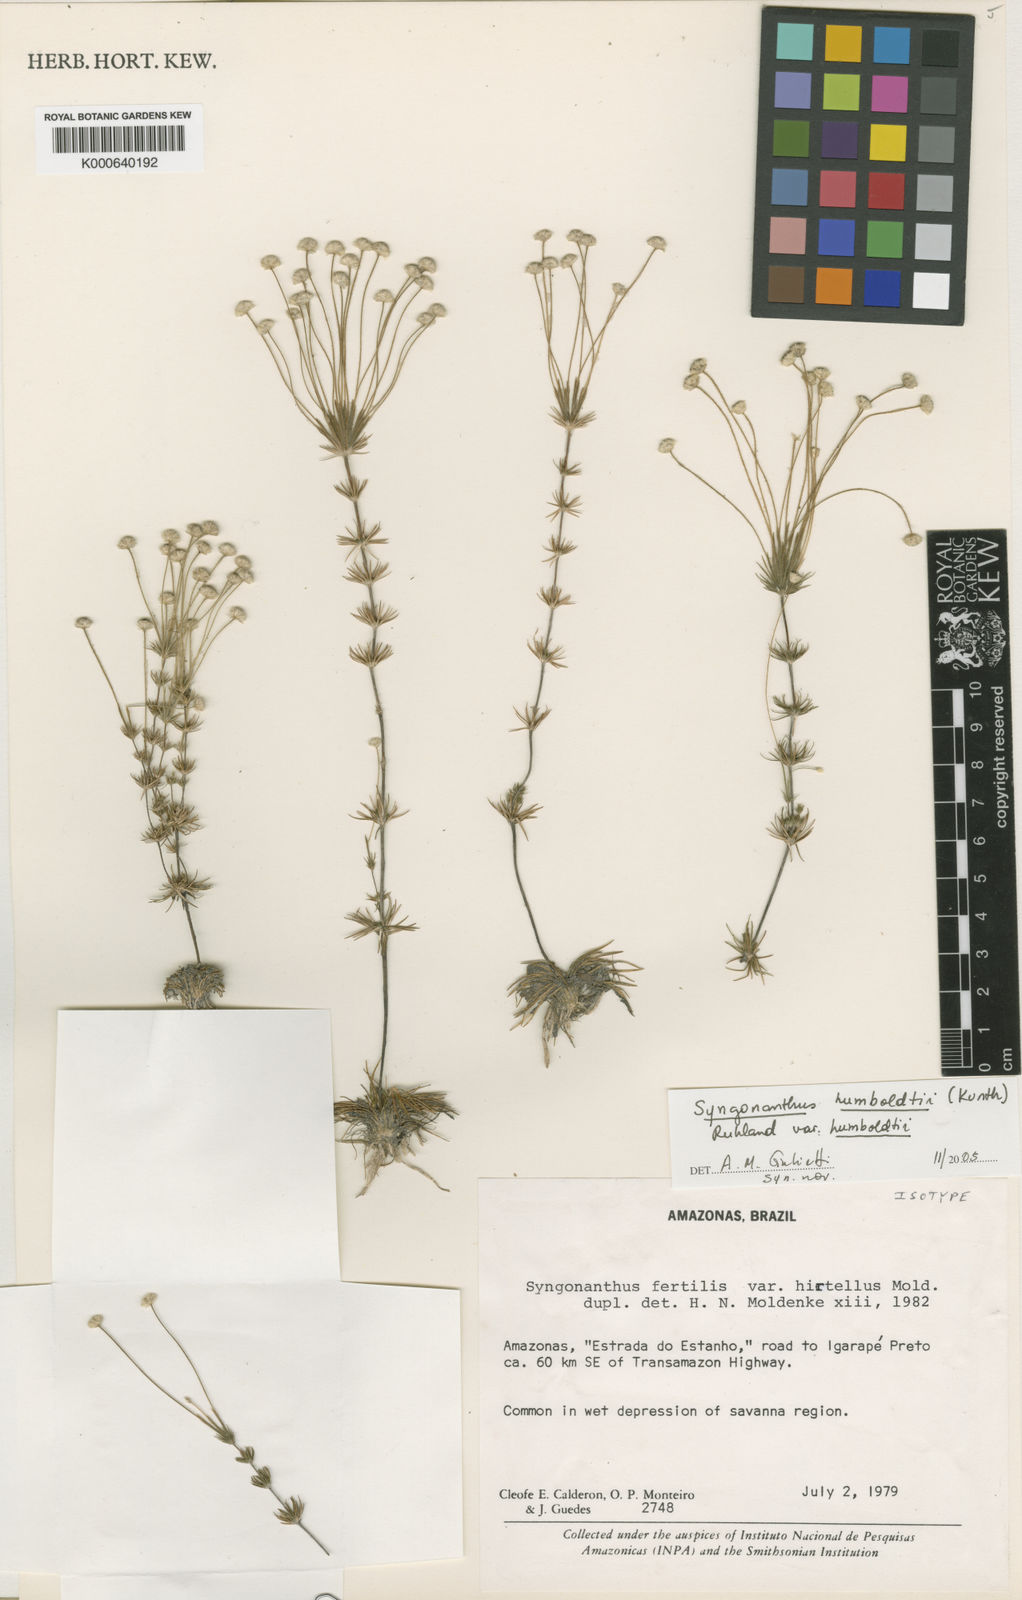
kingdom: Plantae
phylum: Tracheophyta
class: Liliopsida
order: Poales
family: Eriocaulaceae
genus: Syngonanthus
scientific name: Syngonanthus humboldtii
